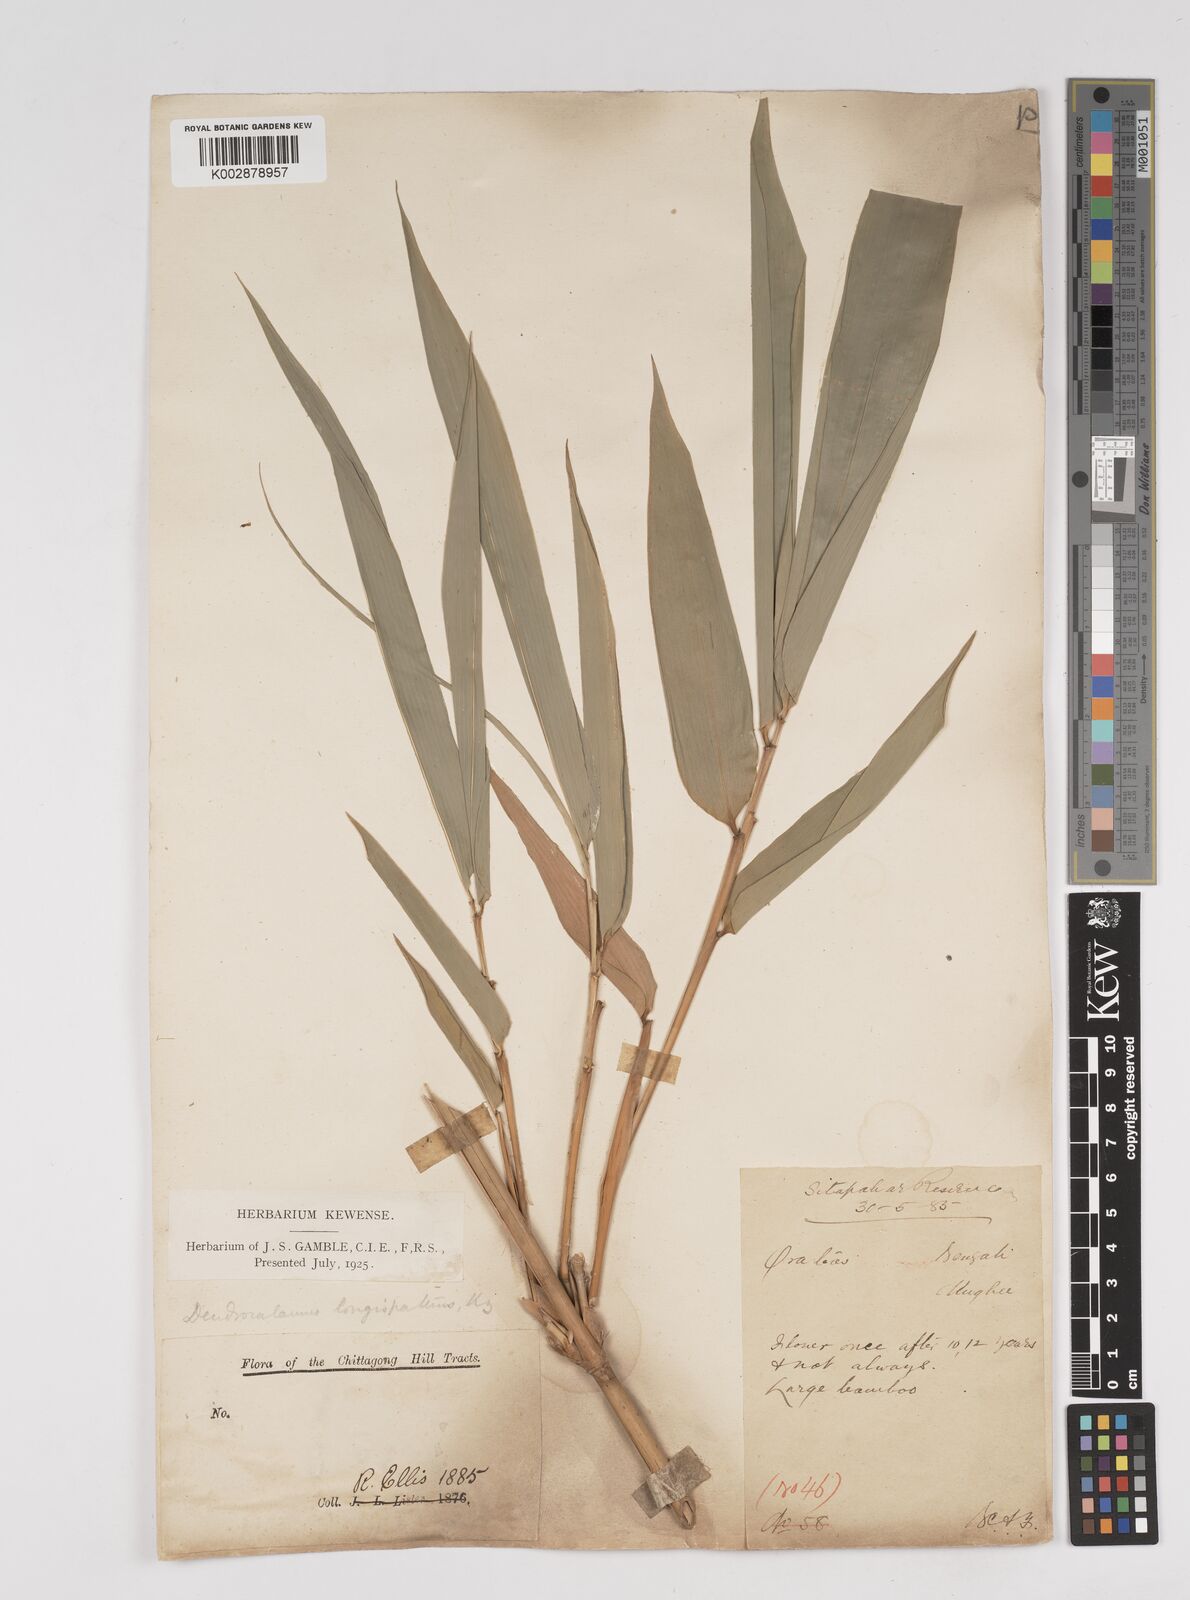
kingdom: Plantae
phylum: Tracheophyta
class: Liliopsida
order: Poales
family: Poaceae
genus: Dendrocalamus
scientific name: Dendrocalamus longispathus
